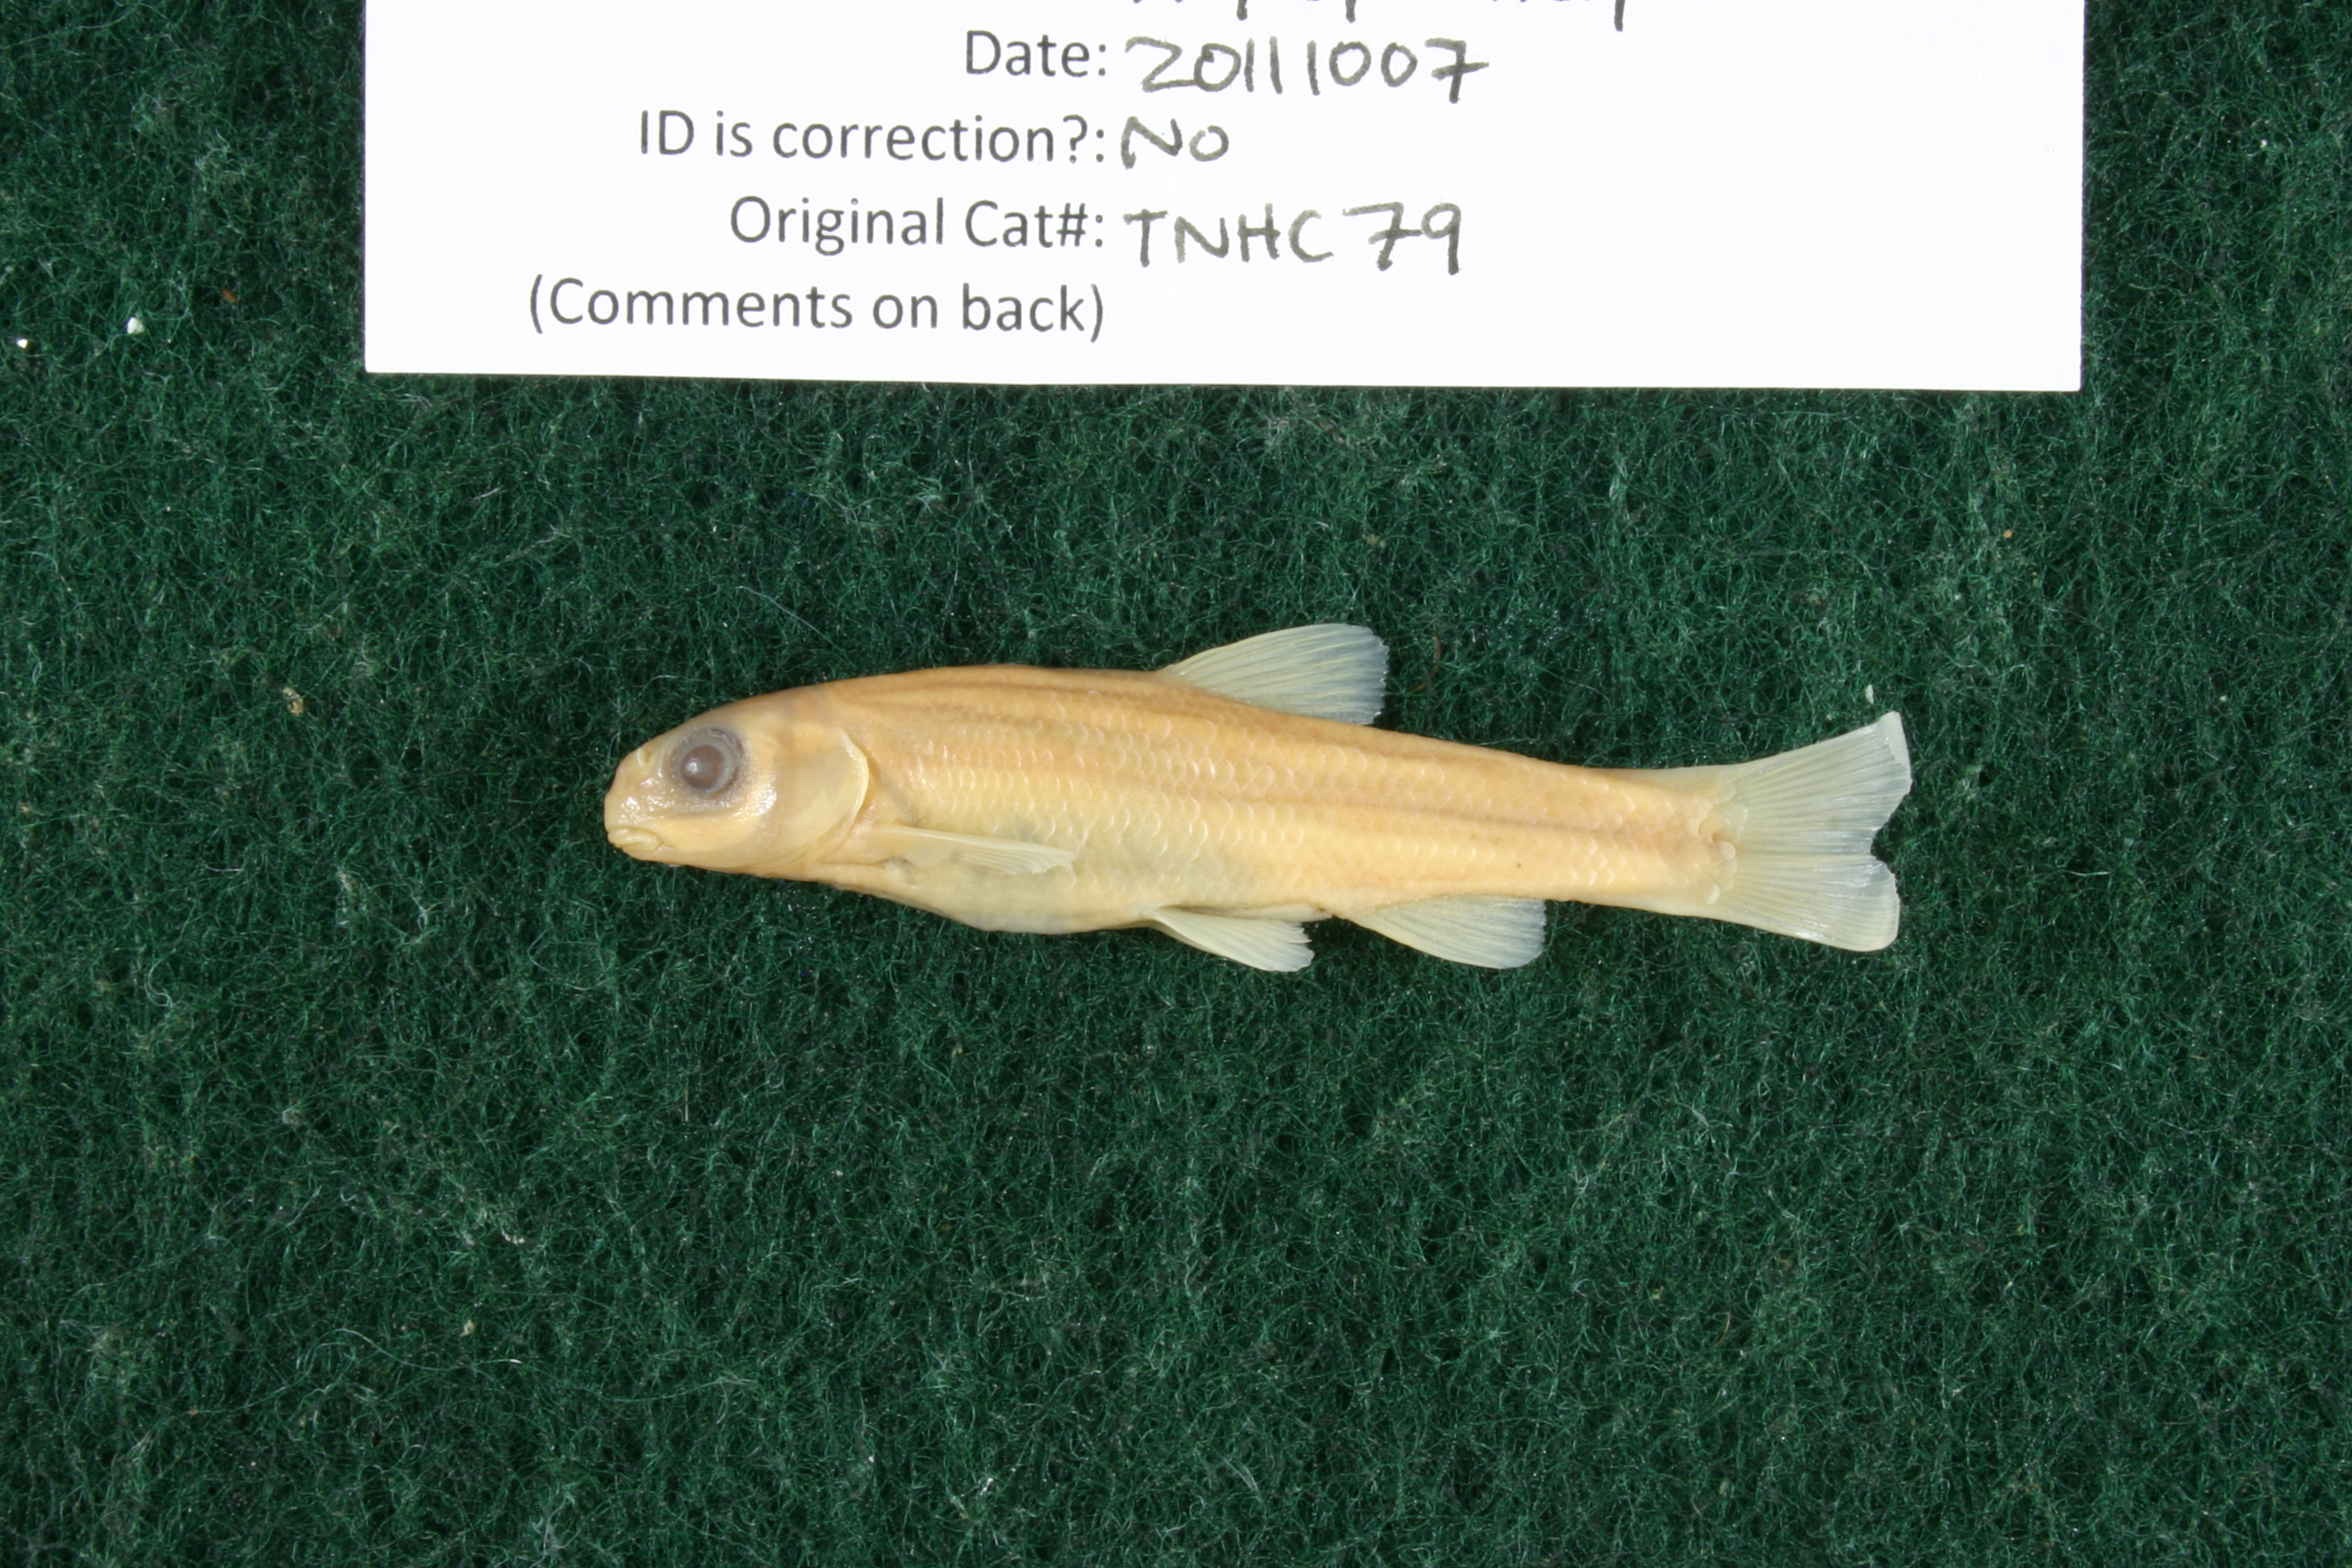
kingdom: Animalia
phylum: Chordata
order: Cypriniformes
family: Cyprinidae
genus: Campostoma
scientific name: Campostoma pullum
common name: Central stoneroller
